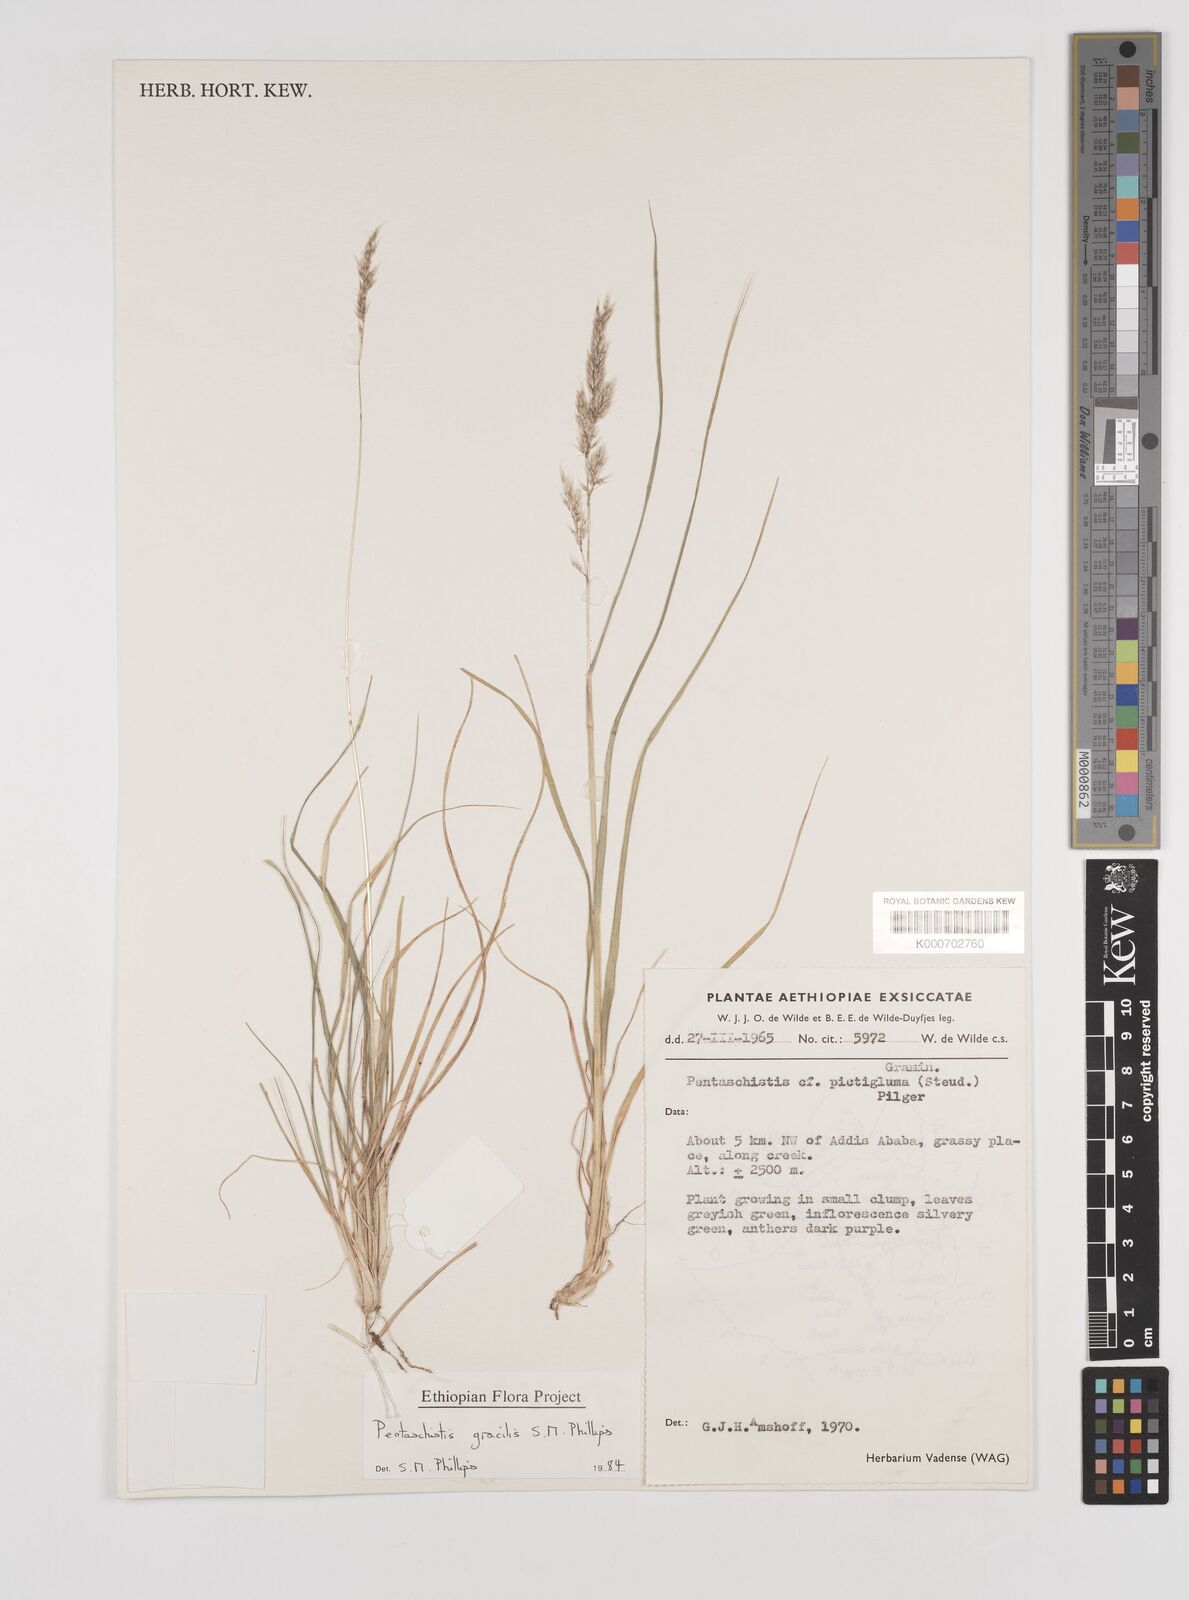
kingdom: Plantae
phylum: Tracheophyta
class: Liliopsida
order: Poales
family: Poaceae
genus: Pentameris
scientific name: Pentameris pictigluma
